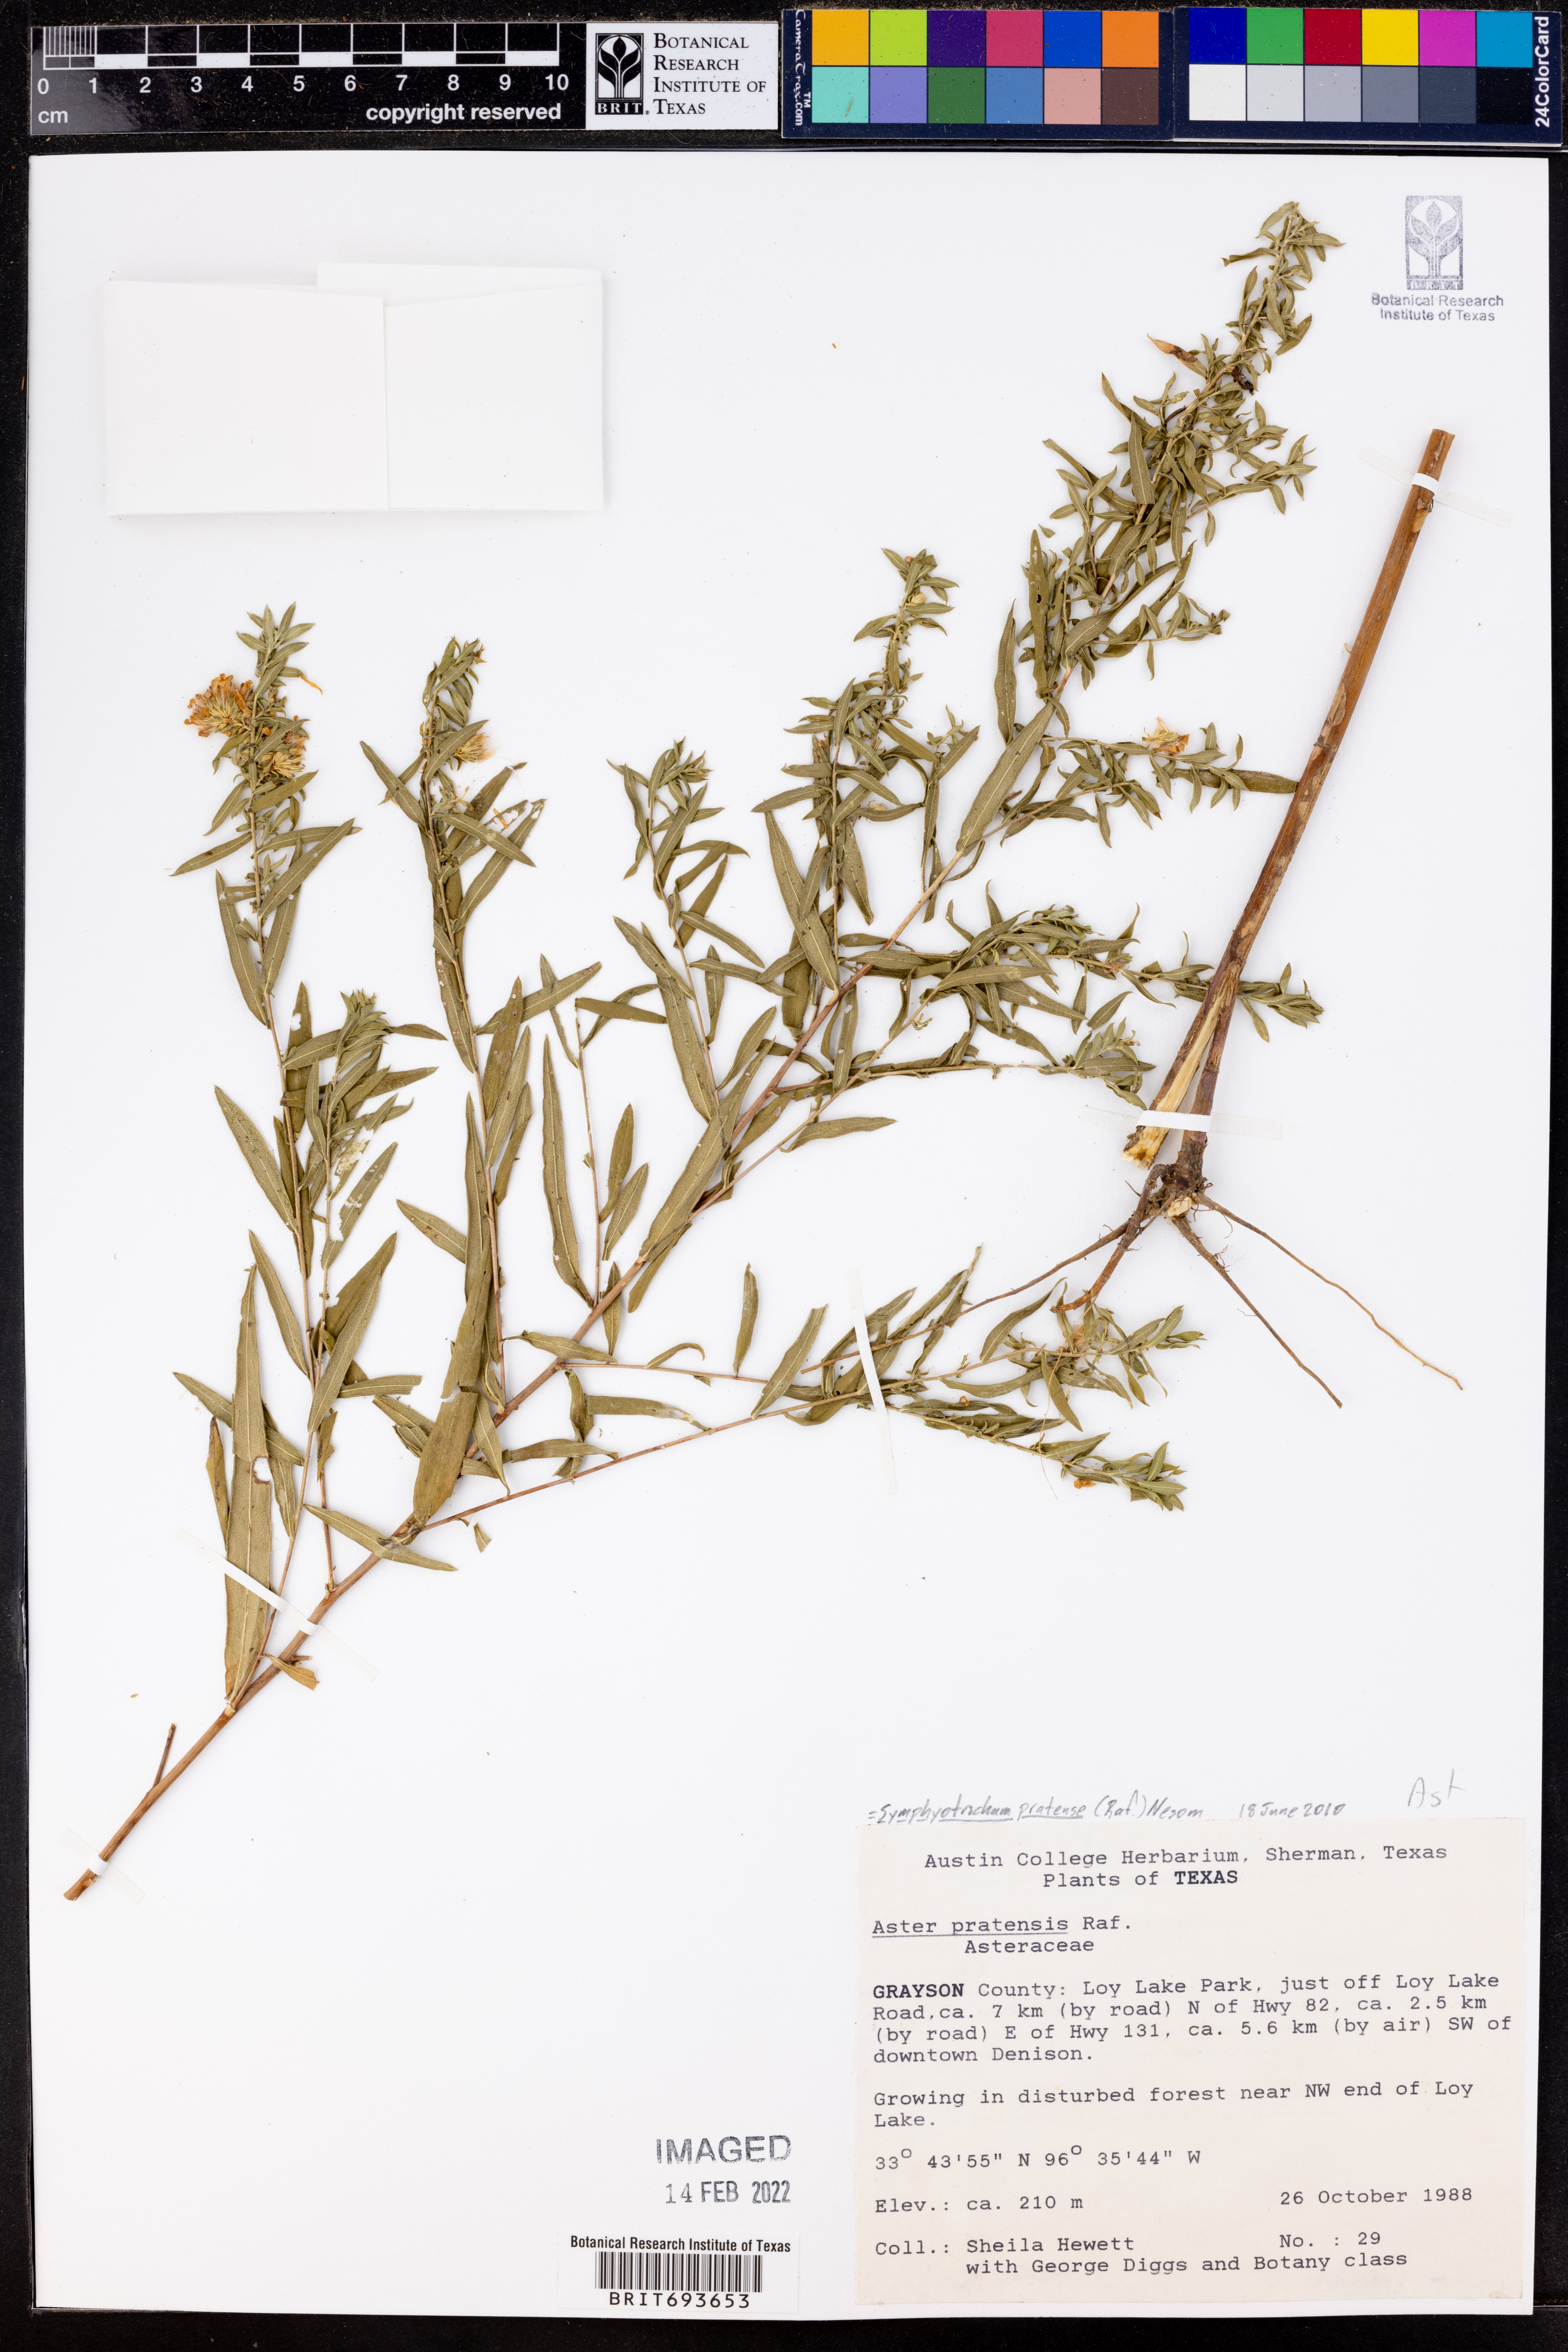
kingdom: Plantae
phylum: Tracheophyta
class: Magnoliopsida
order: Asterales
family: Asteraceae
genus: Symphyotrichum
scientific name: Symphyotrichum pratense
